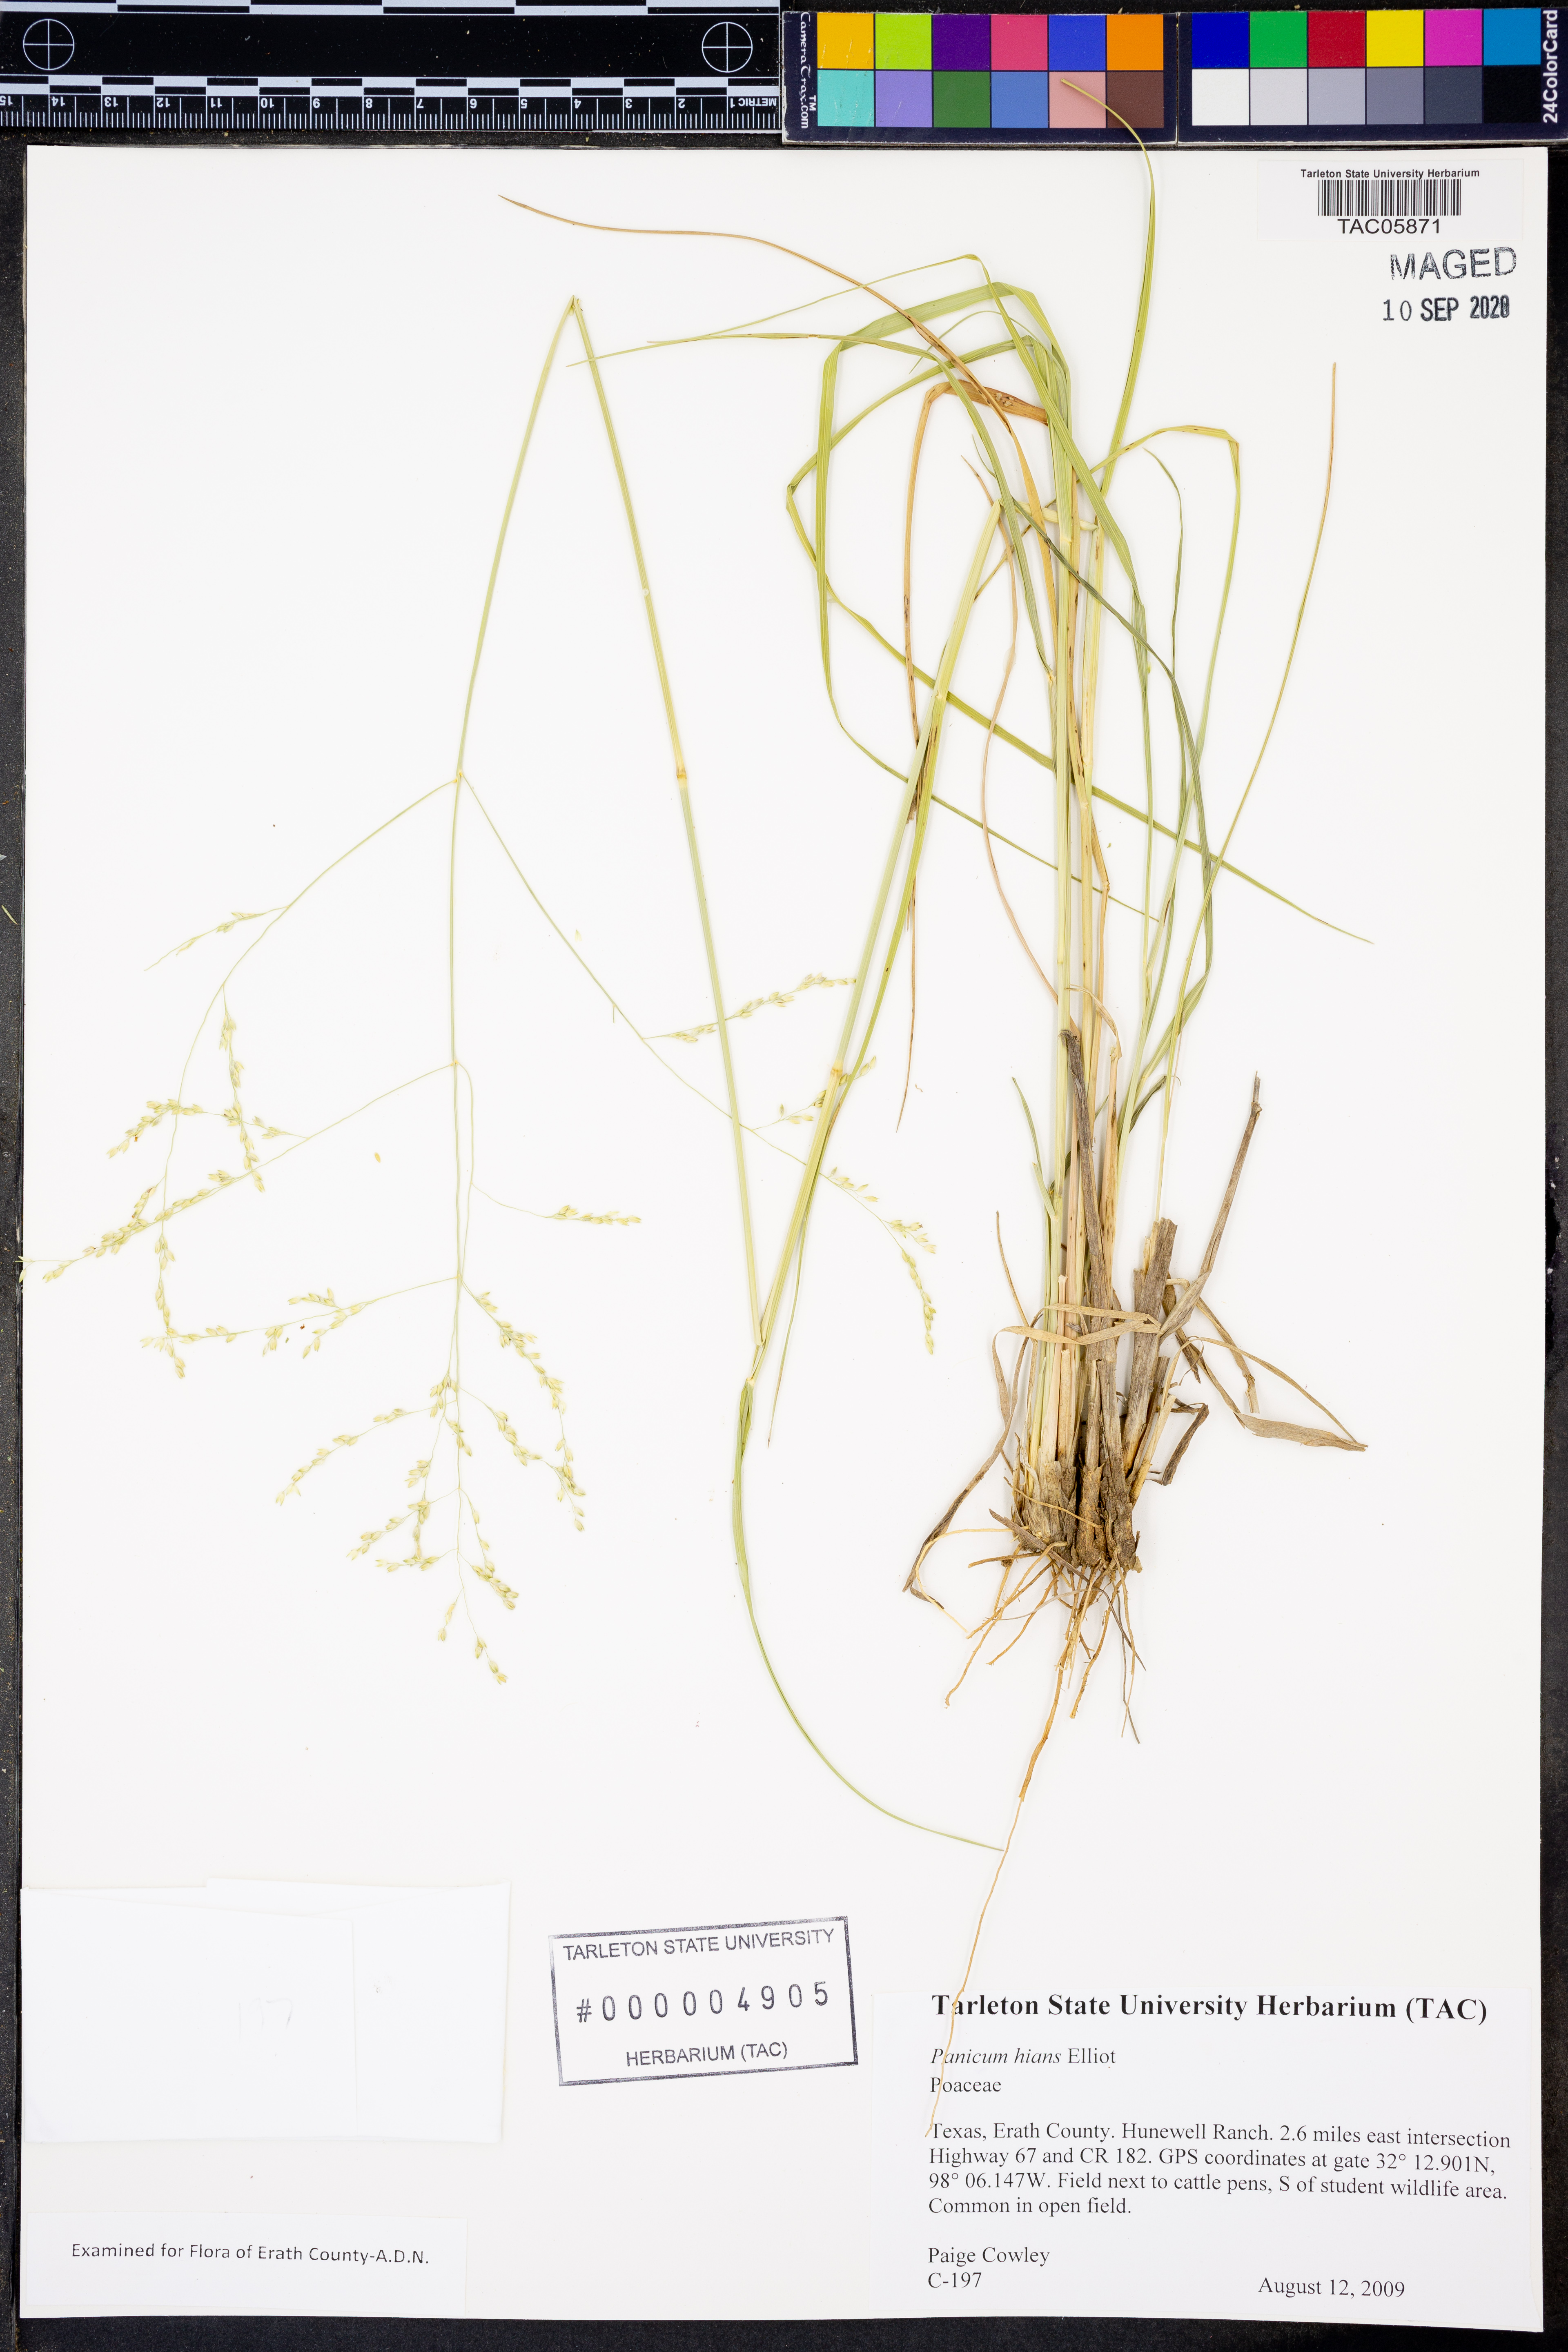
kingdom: Plantae
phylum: Tracheophyta
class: Liliopsida
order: Poales
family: Poaceae
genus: Coleataenia
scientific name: Coleataenia stenodes
